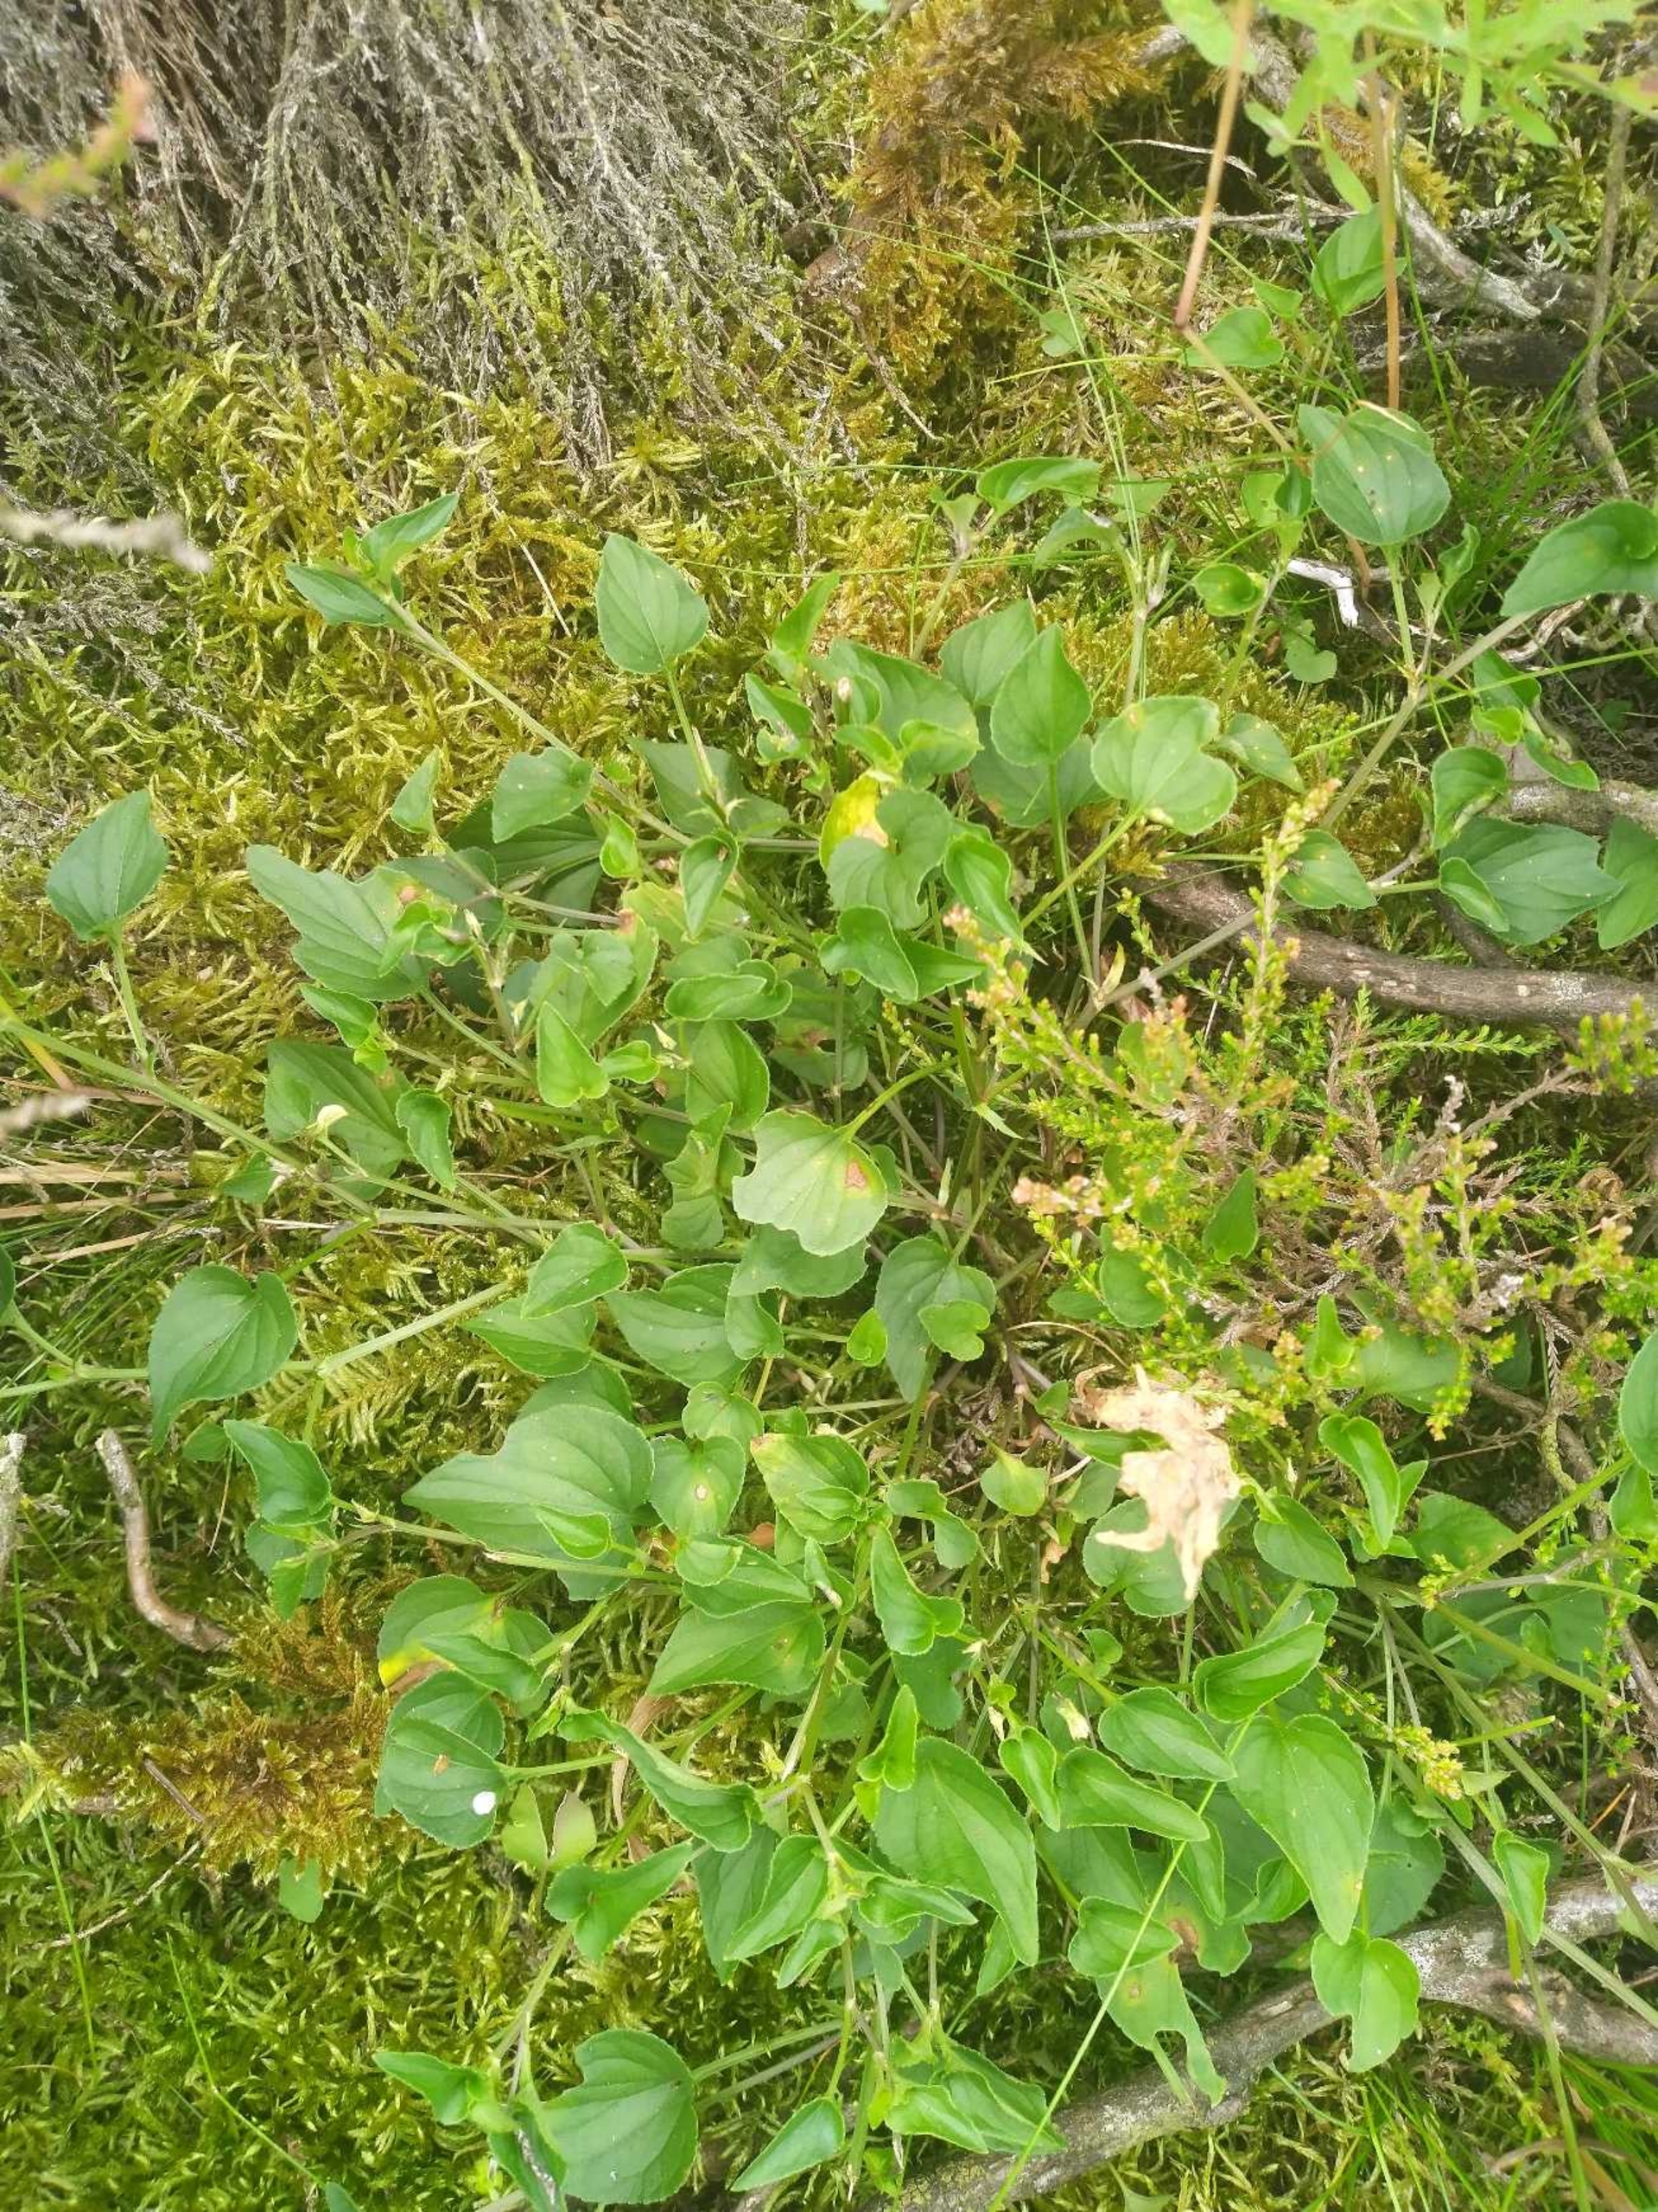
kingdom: Plantae
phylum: Tracheophyta
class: Magnoliopsida
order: Malpighiales
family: Violaceae
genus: Viola
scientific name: Viola canina
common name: Hunde-viol
